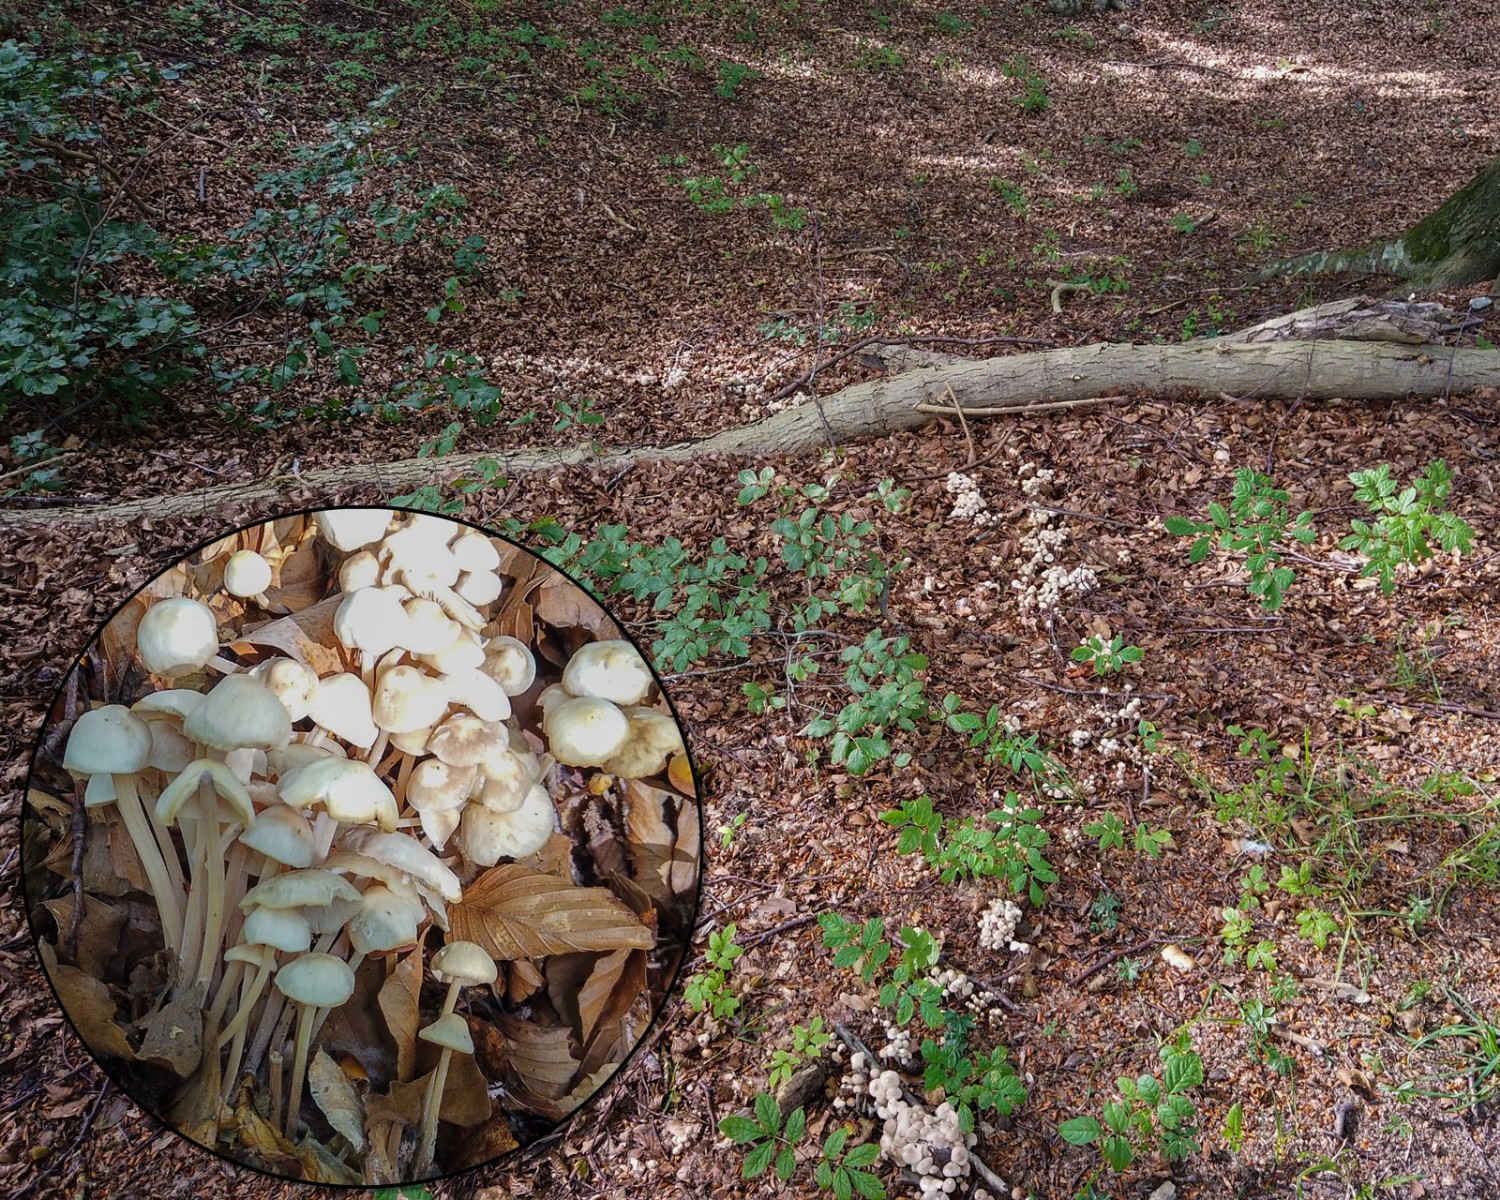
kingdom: Fungi
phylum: Basidiomycota
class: Agaricomycetes
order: Agaricales
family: Omphalotaceae
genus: Collybiopsis
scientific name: Collybiopsis confluens
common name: knippe-fladhat
